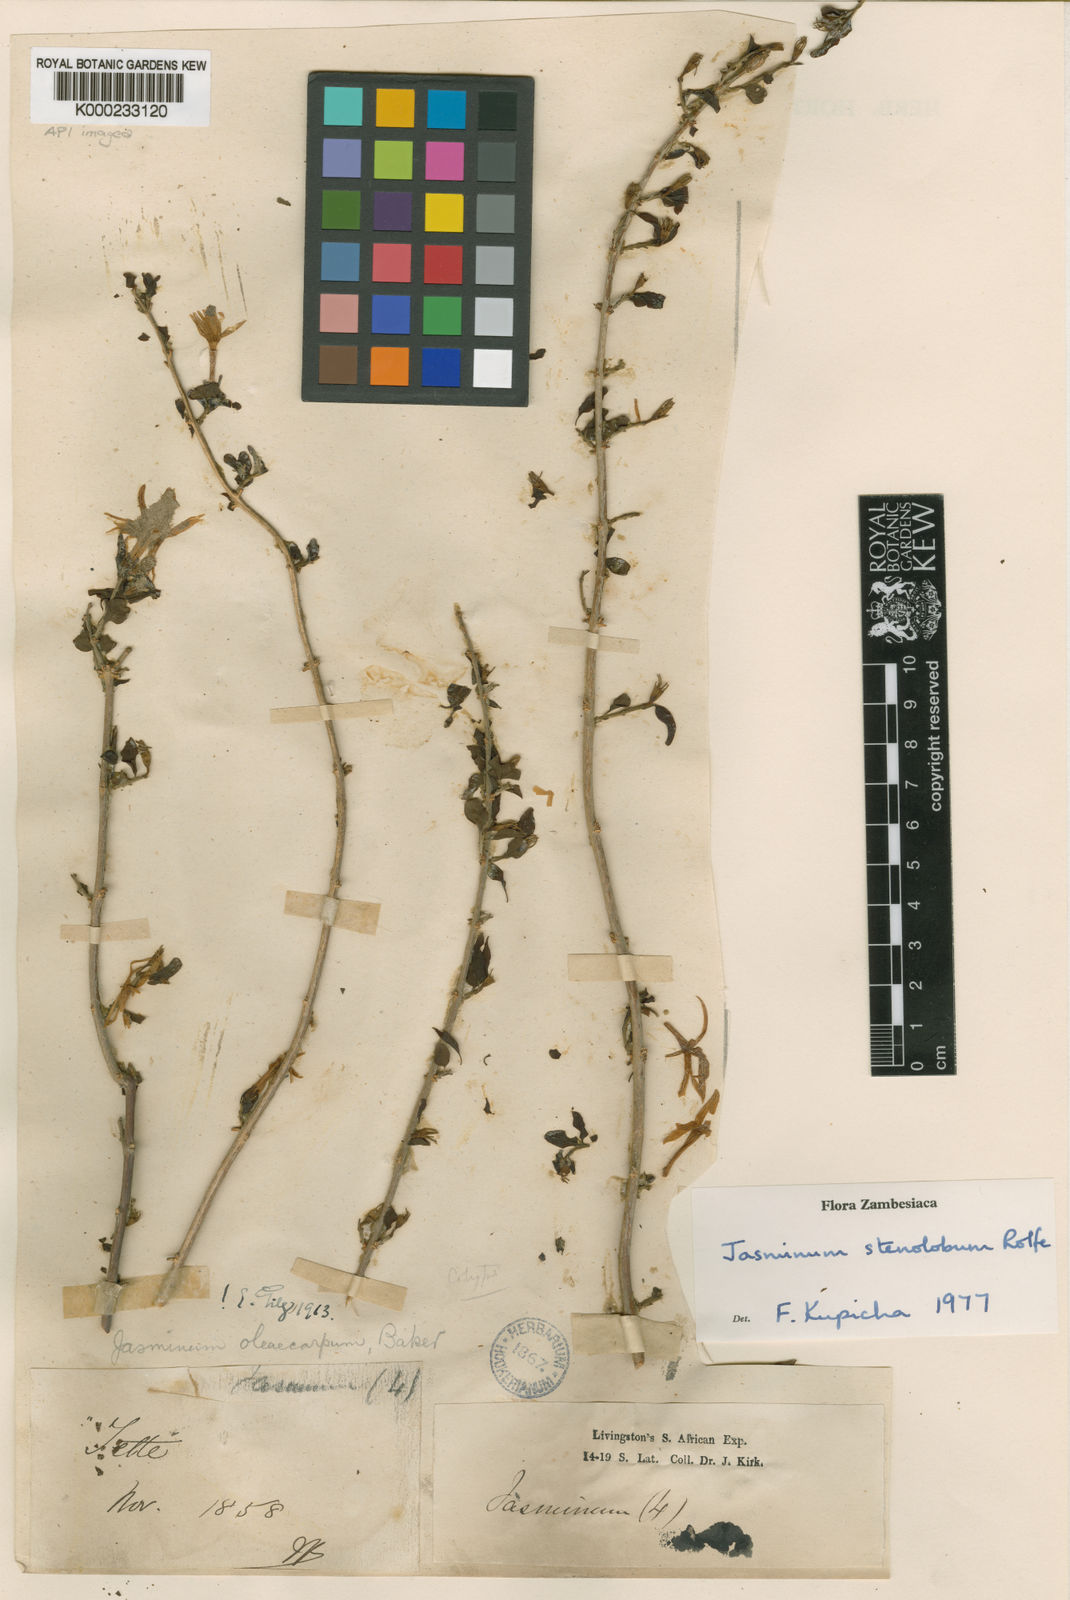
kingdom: Plantae
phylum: Tracheophyta
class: Magnoliopsida
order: Lamiales
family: Oleaceae
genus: Jasminum
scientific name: Jasminum
